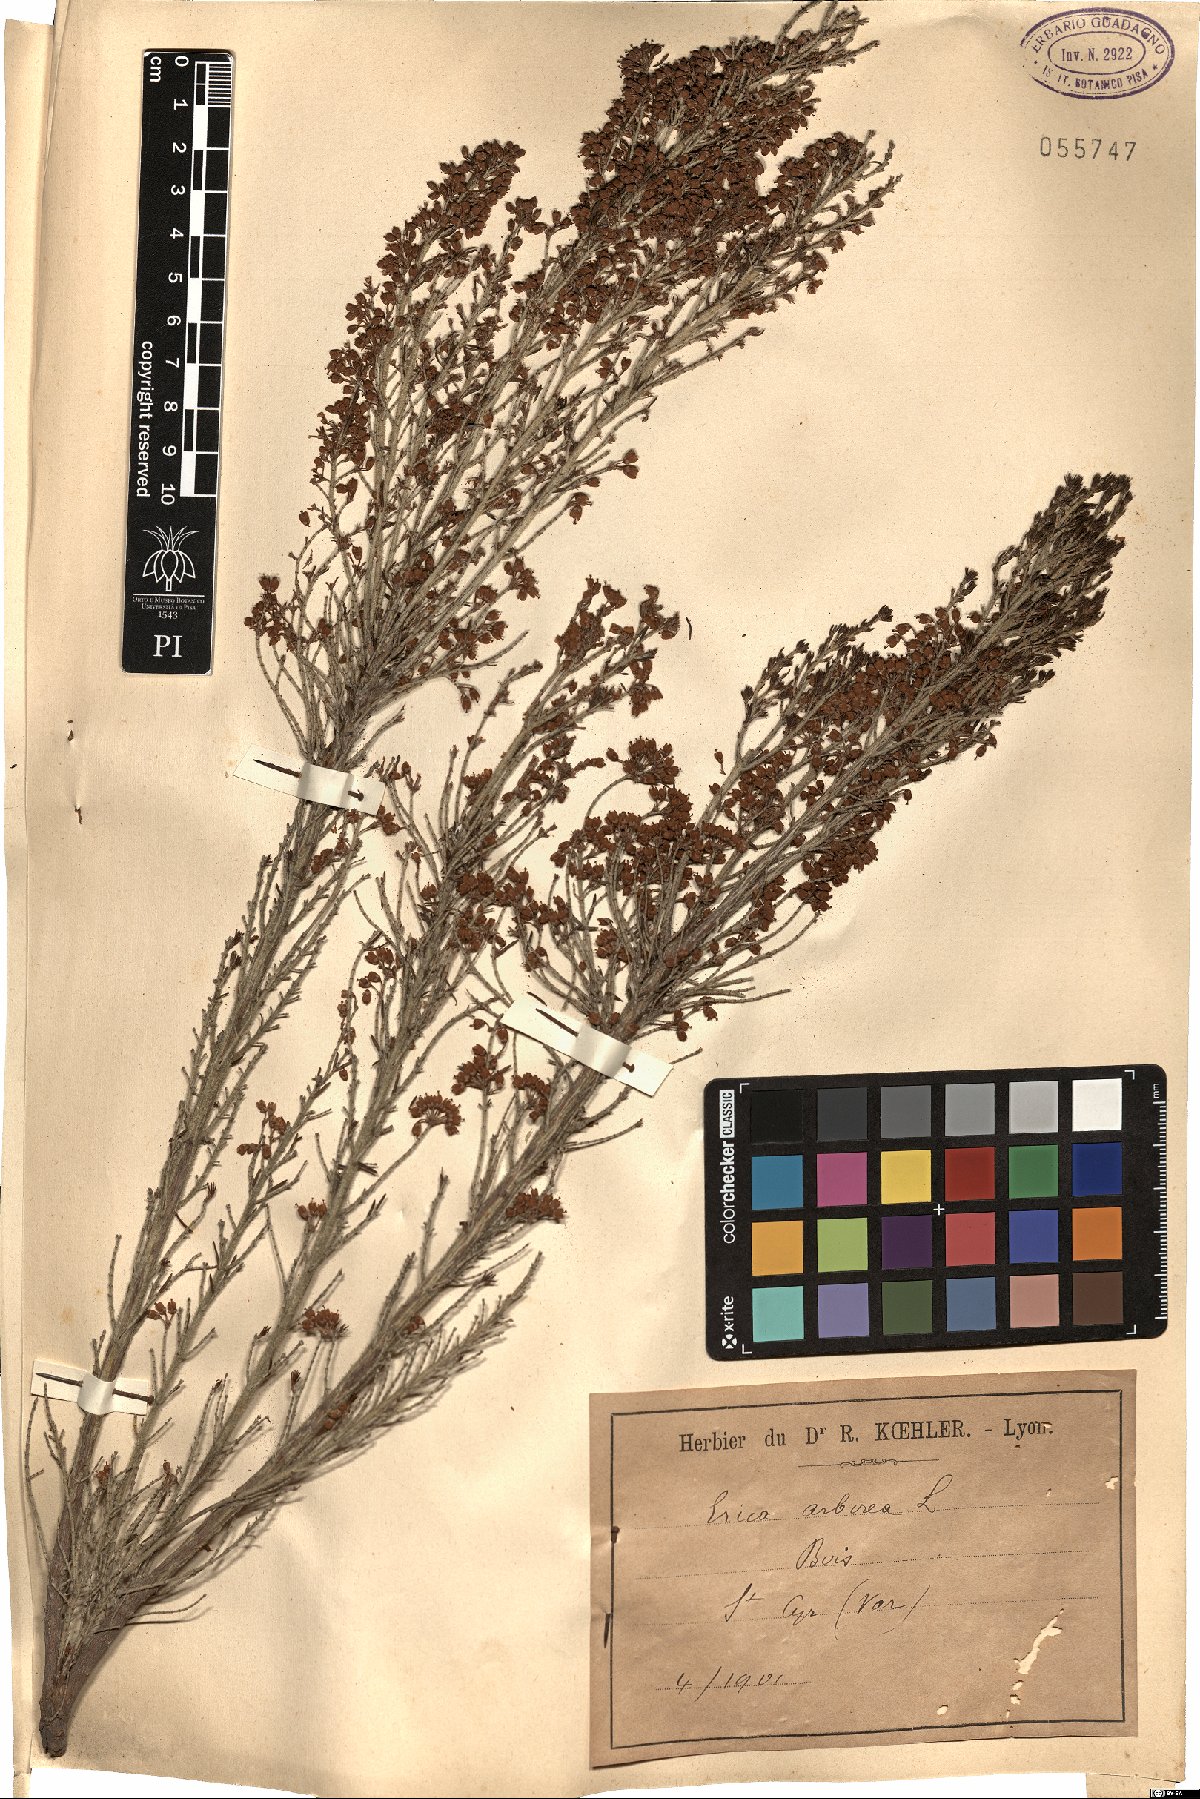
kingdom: Plantae
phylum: Tracheophyta
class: Magnoliopsida
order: Ericales
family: Ericaceae
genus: Erica
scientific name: Erica arborea
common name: Tree heath
